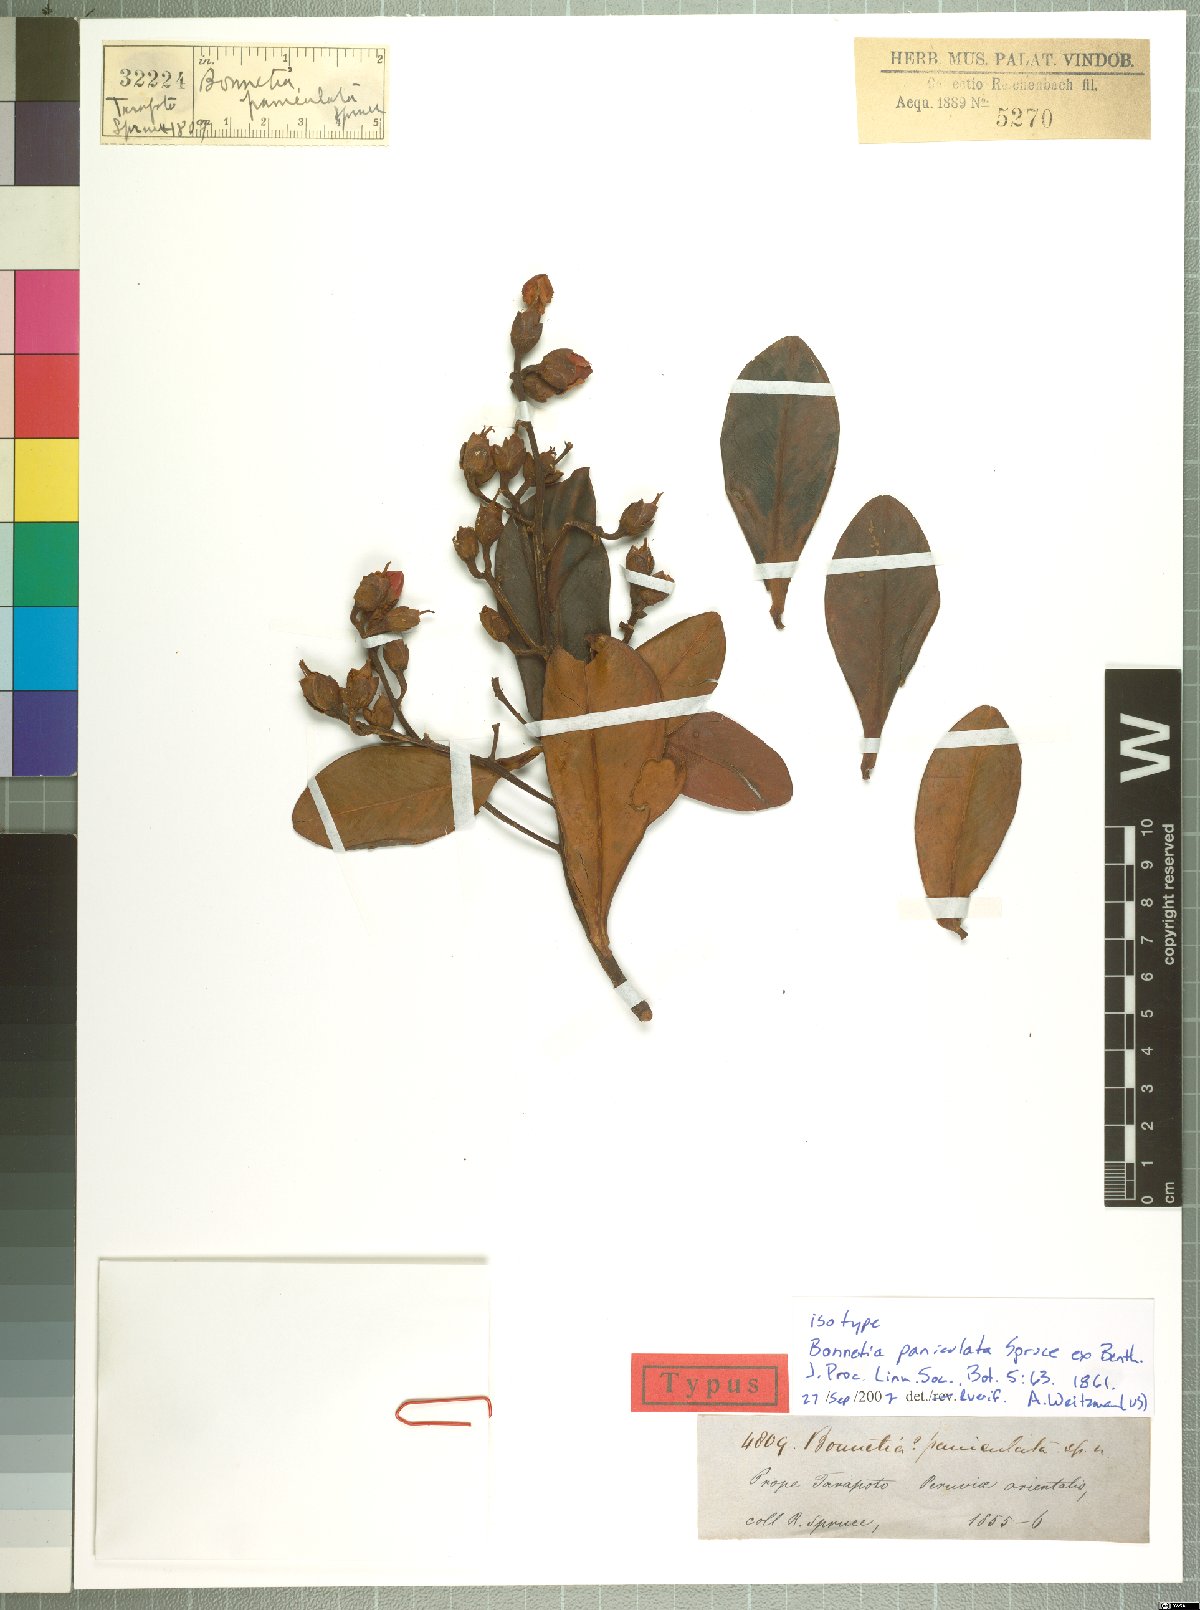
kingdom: Plantae
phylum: Tracheophyta
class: Magnoliopsida
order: Malpighiales
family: Bonnetiaceae
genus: Bonnetia
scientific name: Bonnetia paniculata
